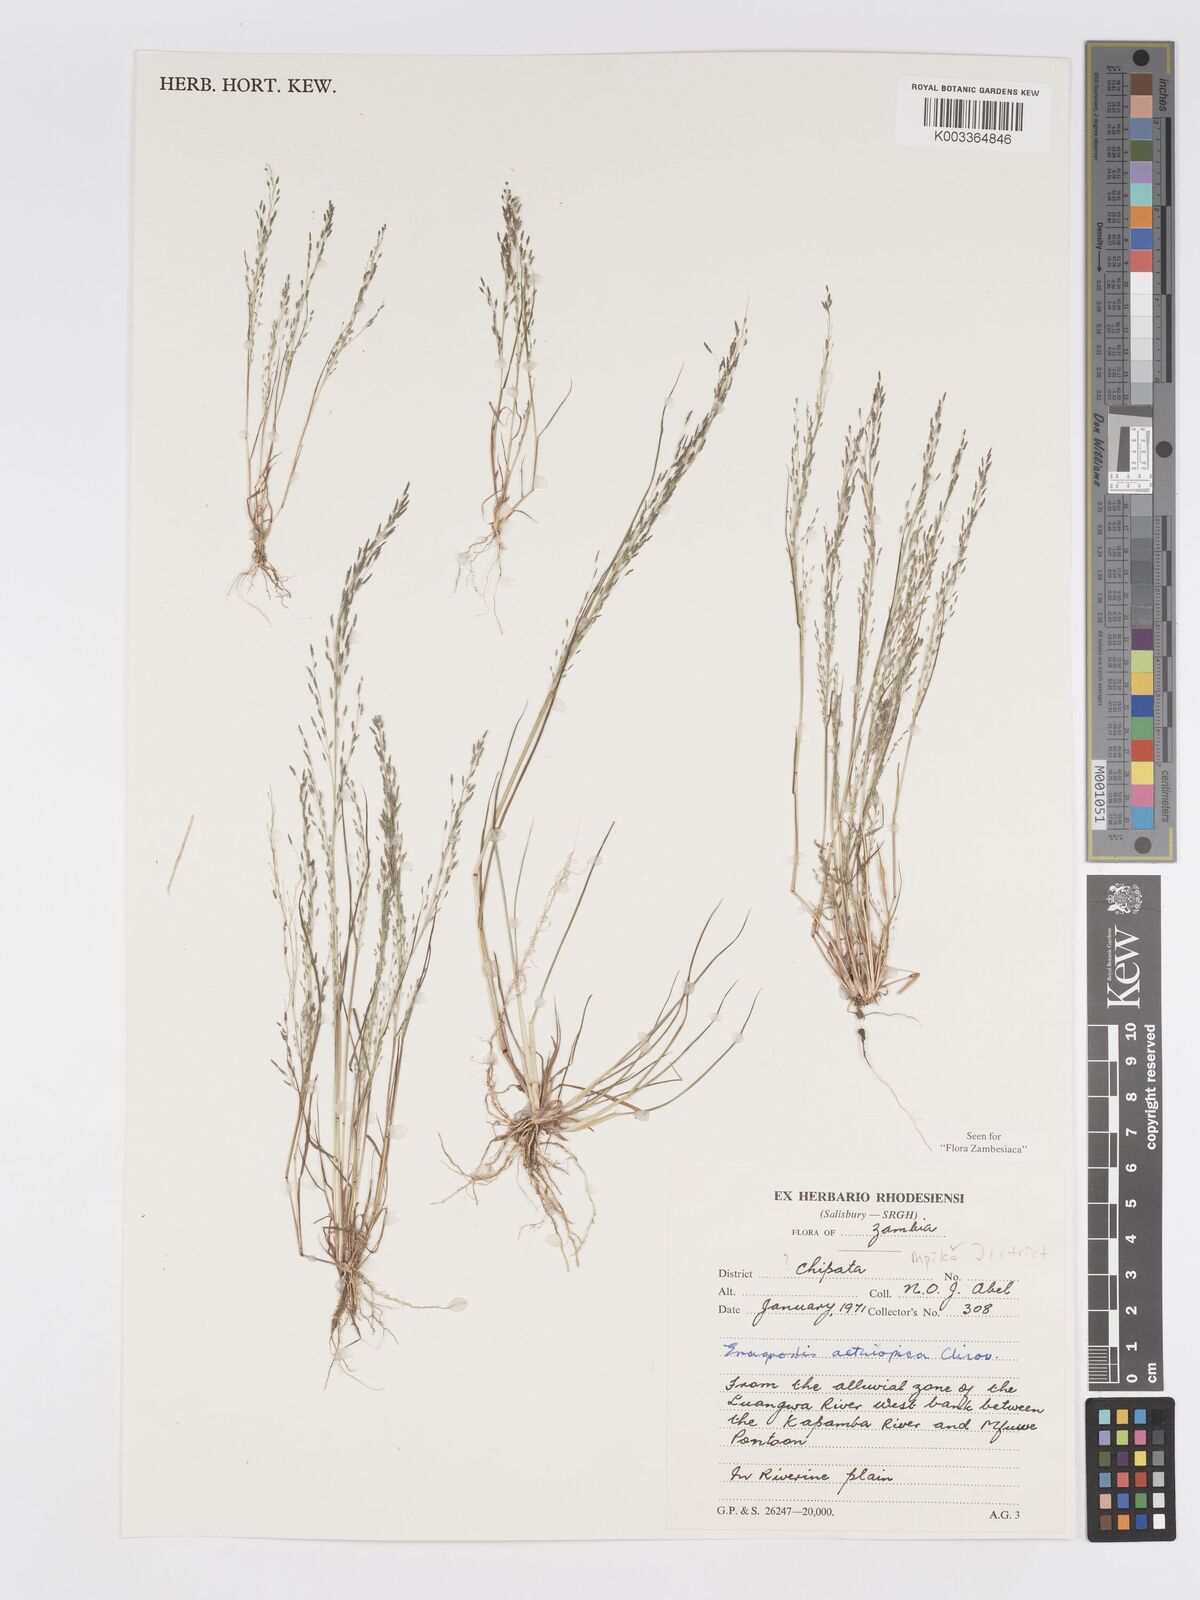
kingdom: Plantae
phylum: Tracheophyta
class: Liliopsida
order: Poales
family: Poaceae
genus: Eragrostis
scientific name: Eragrostis aethiopica
